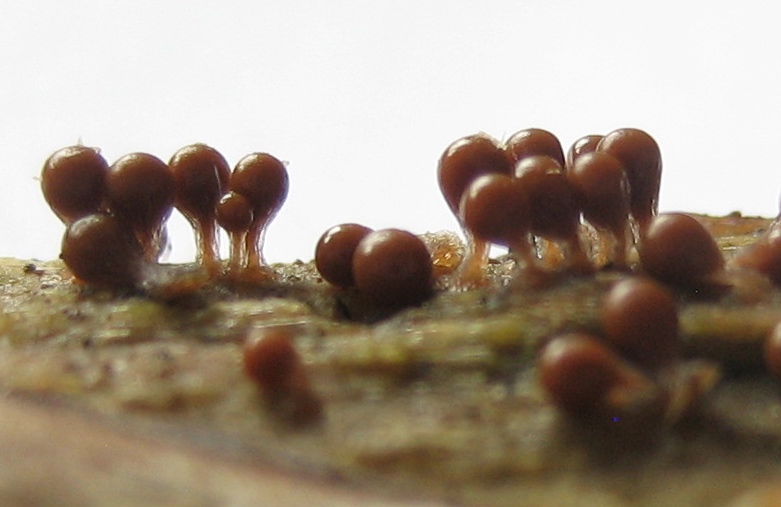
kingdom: Protozoa
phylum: Mycetozoa
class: Myxomycetes
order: Trichiales
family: Trichiaceae
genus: Trichia
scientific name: Trichia
